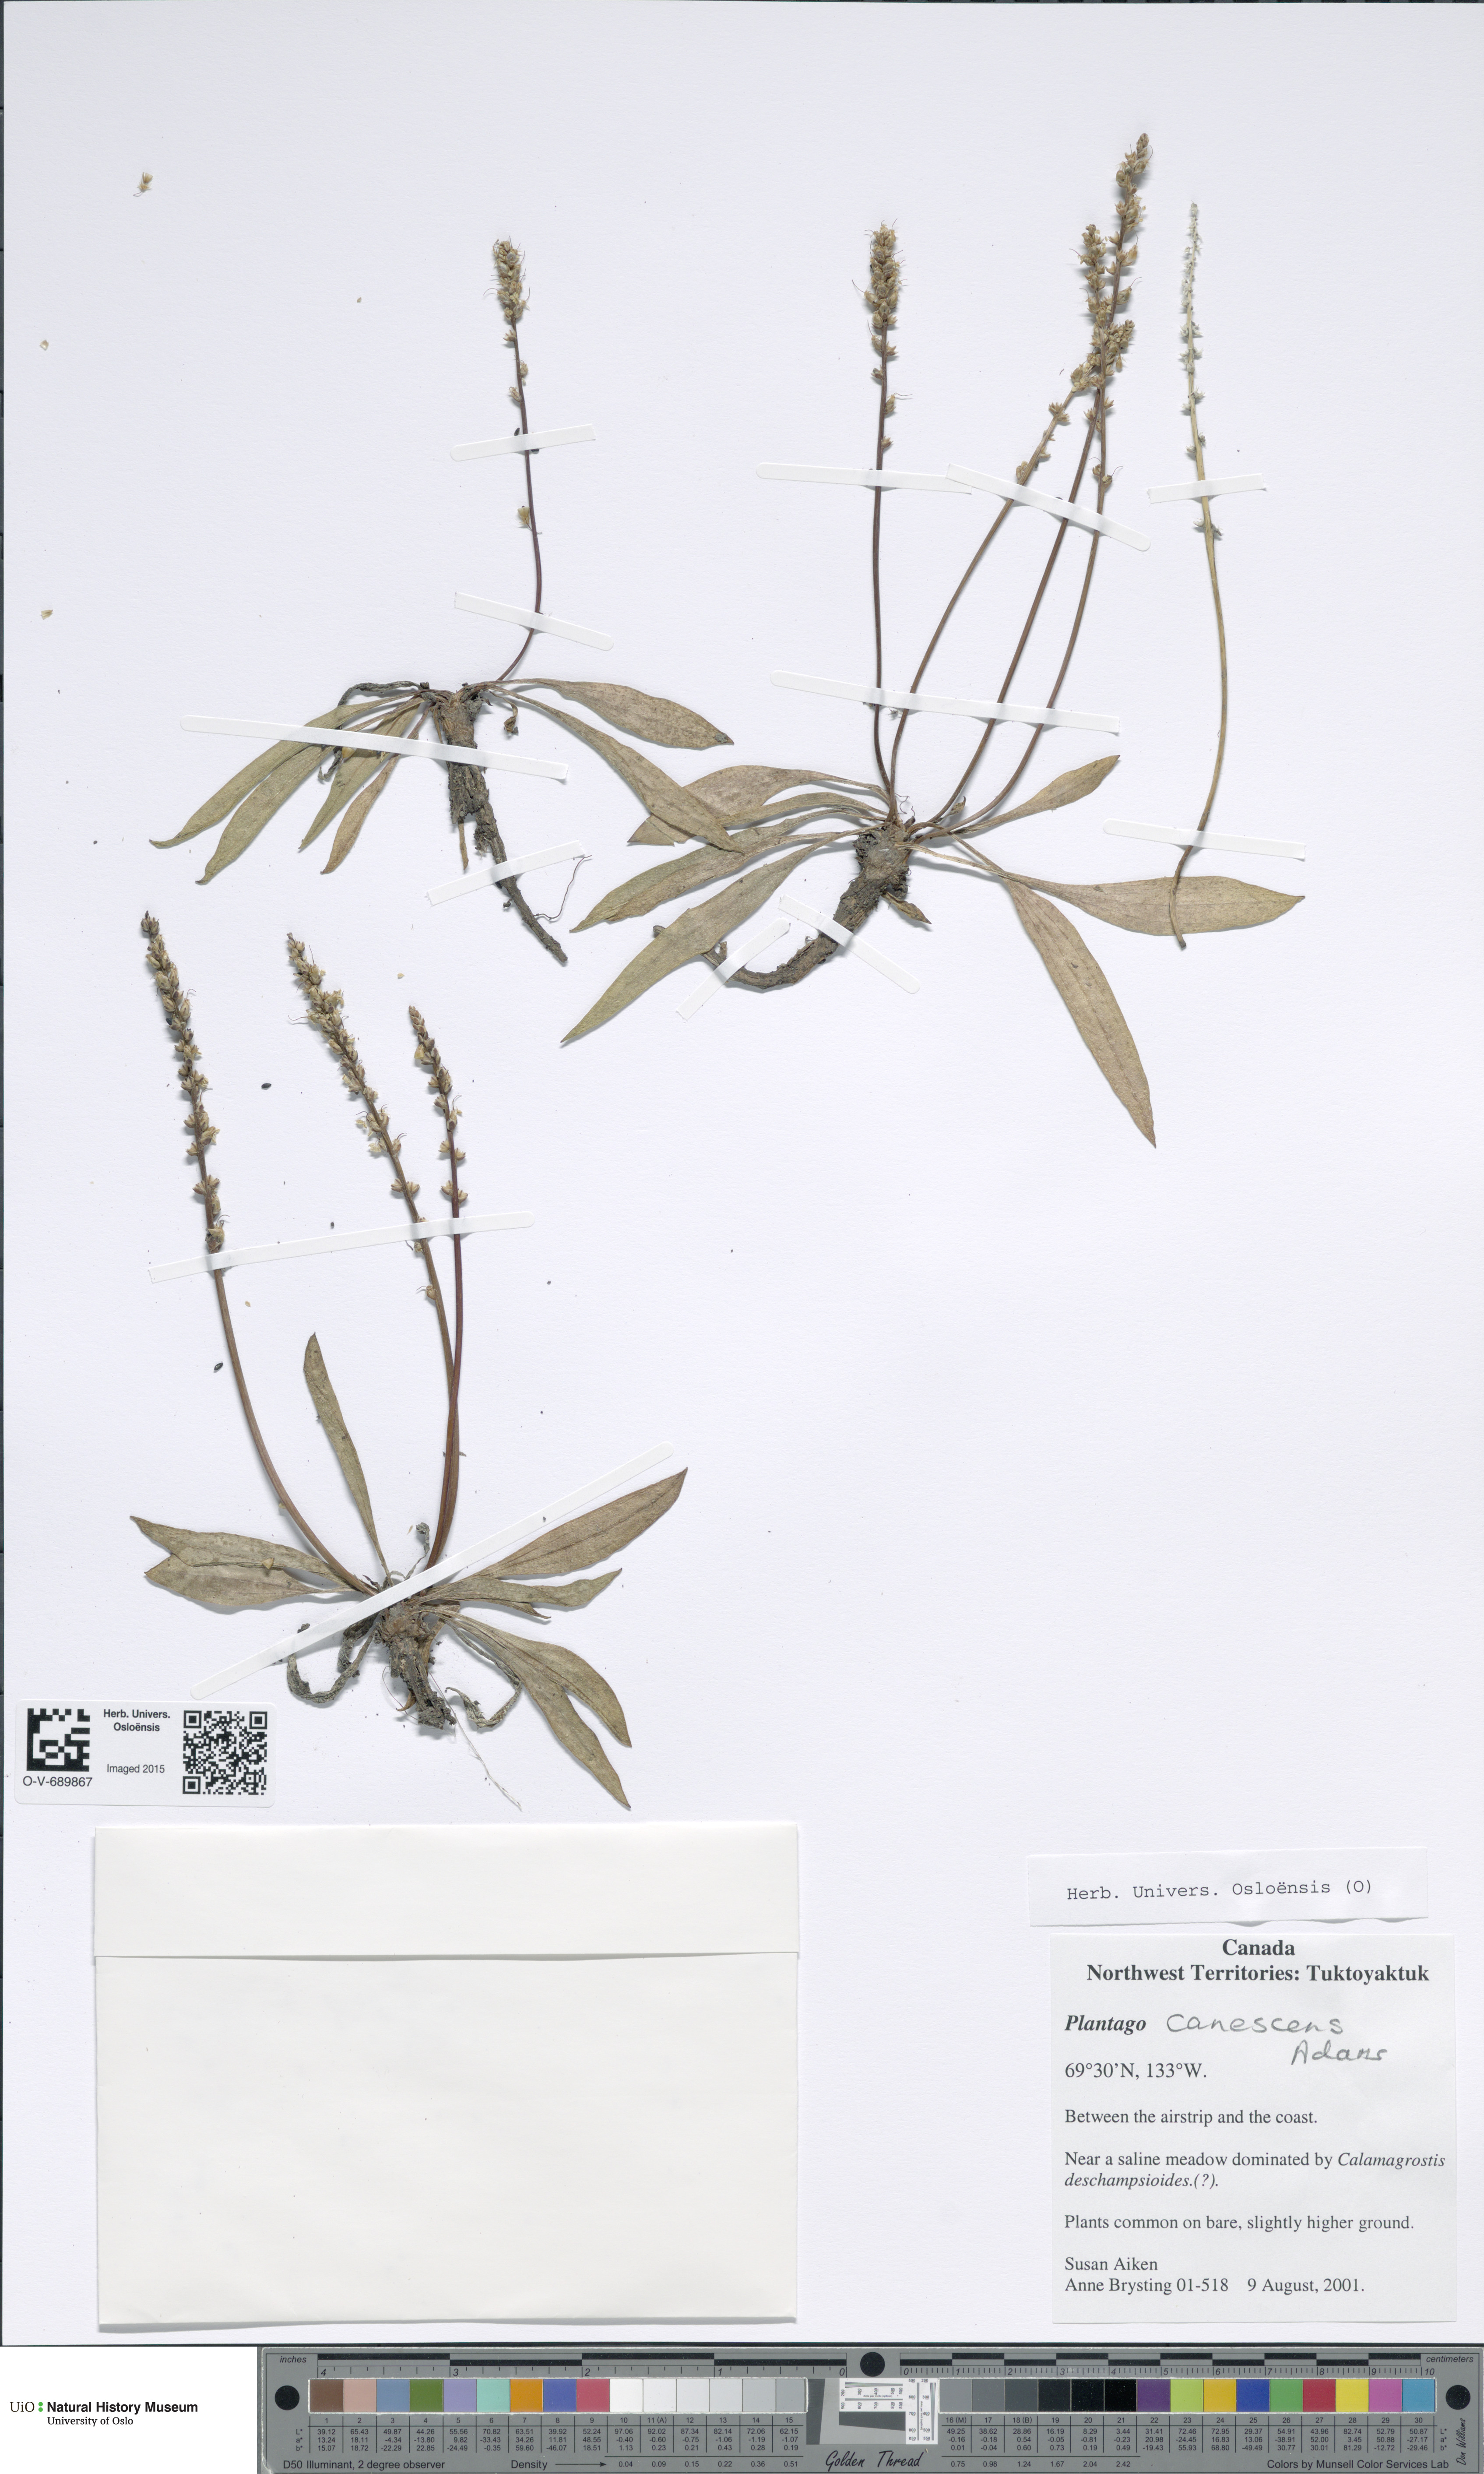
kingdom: Plantae
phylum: Tracheophyta
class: Magnoliopsida
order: Lamiales
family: Plantaginaceae
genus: Plantago
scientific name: Plantago canescens
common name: Siberian plantain
